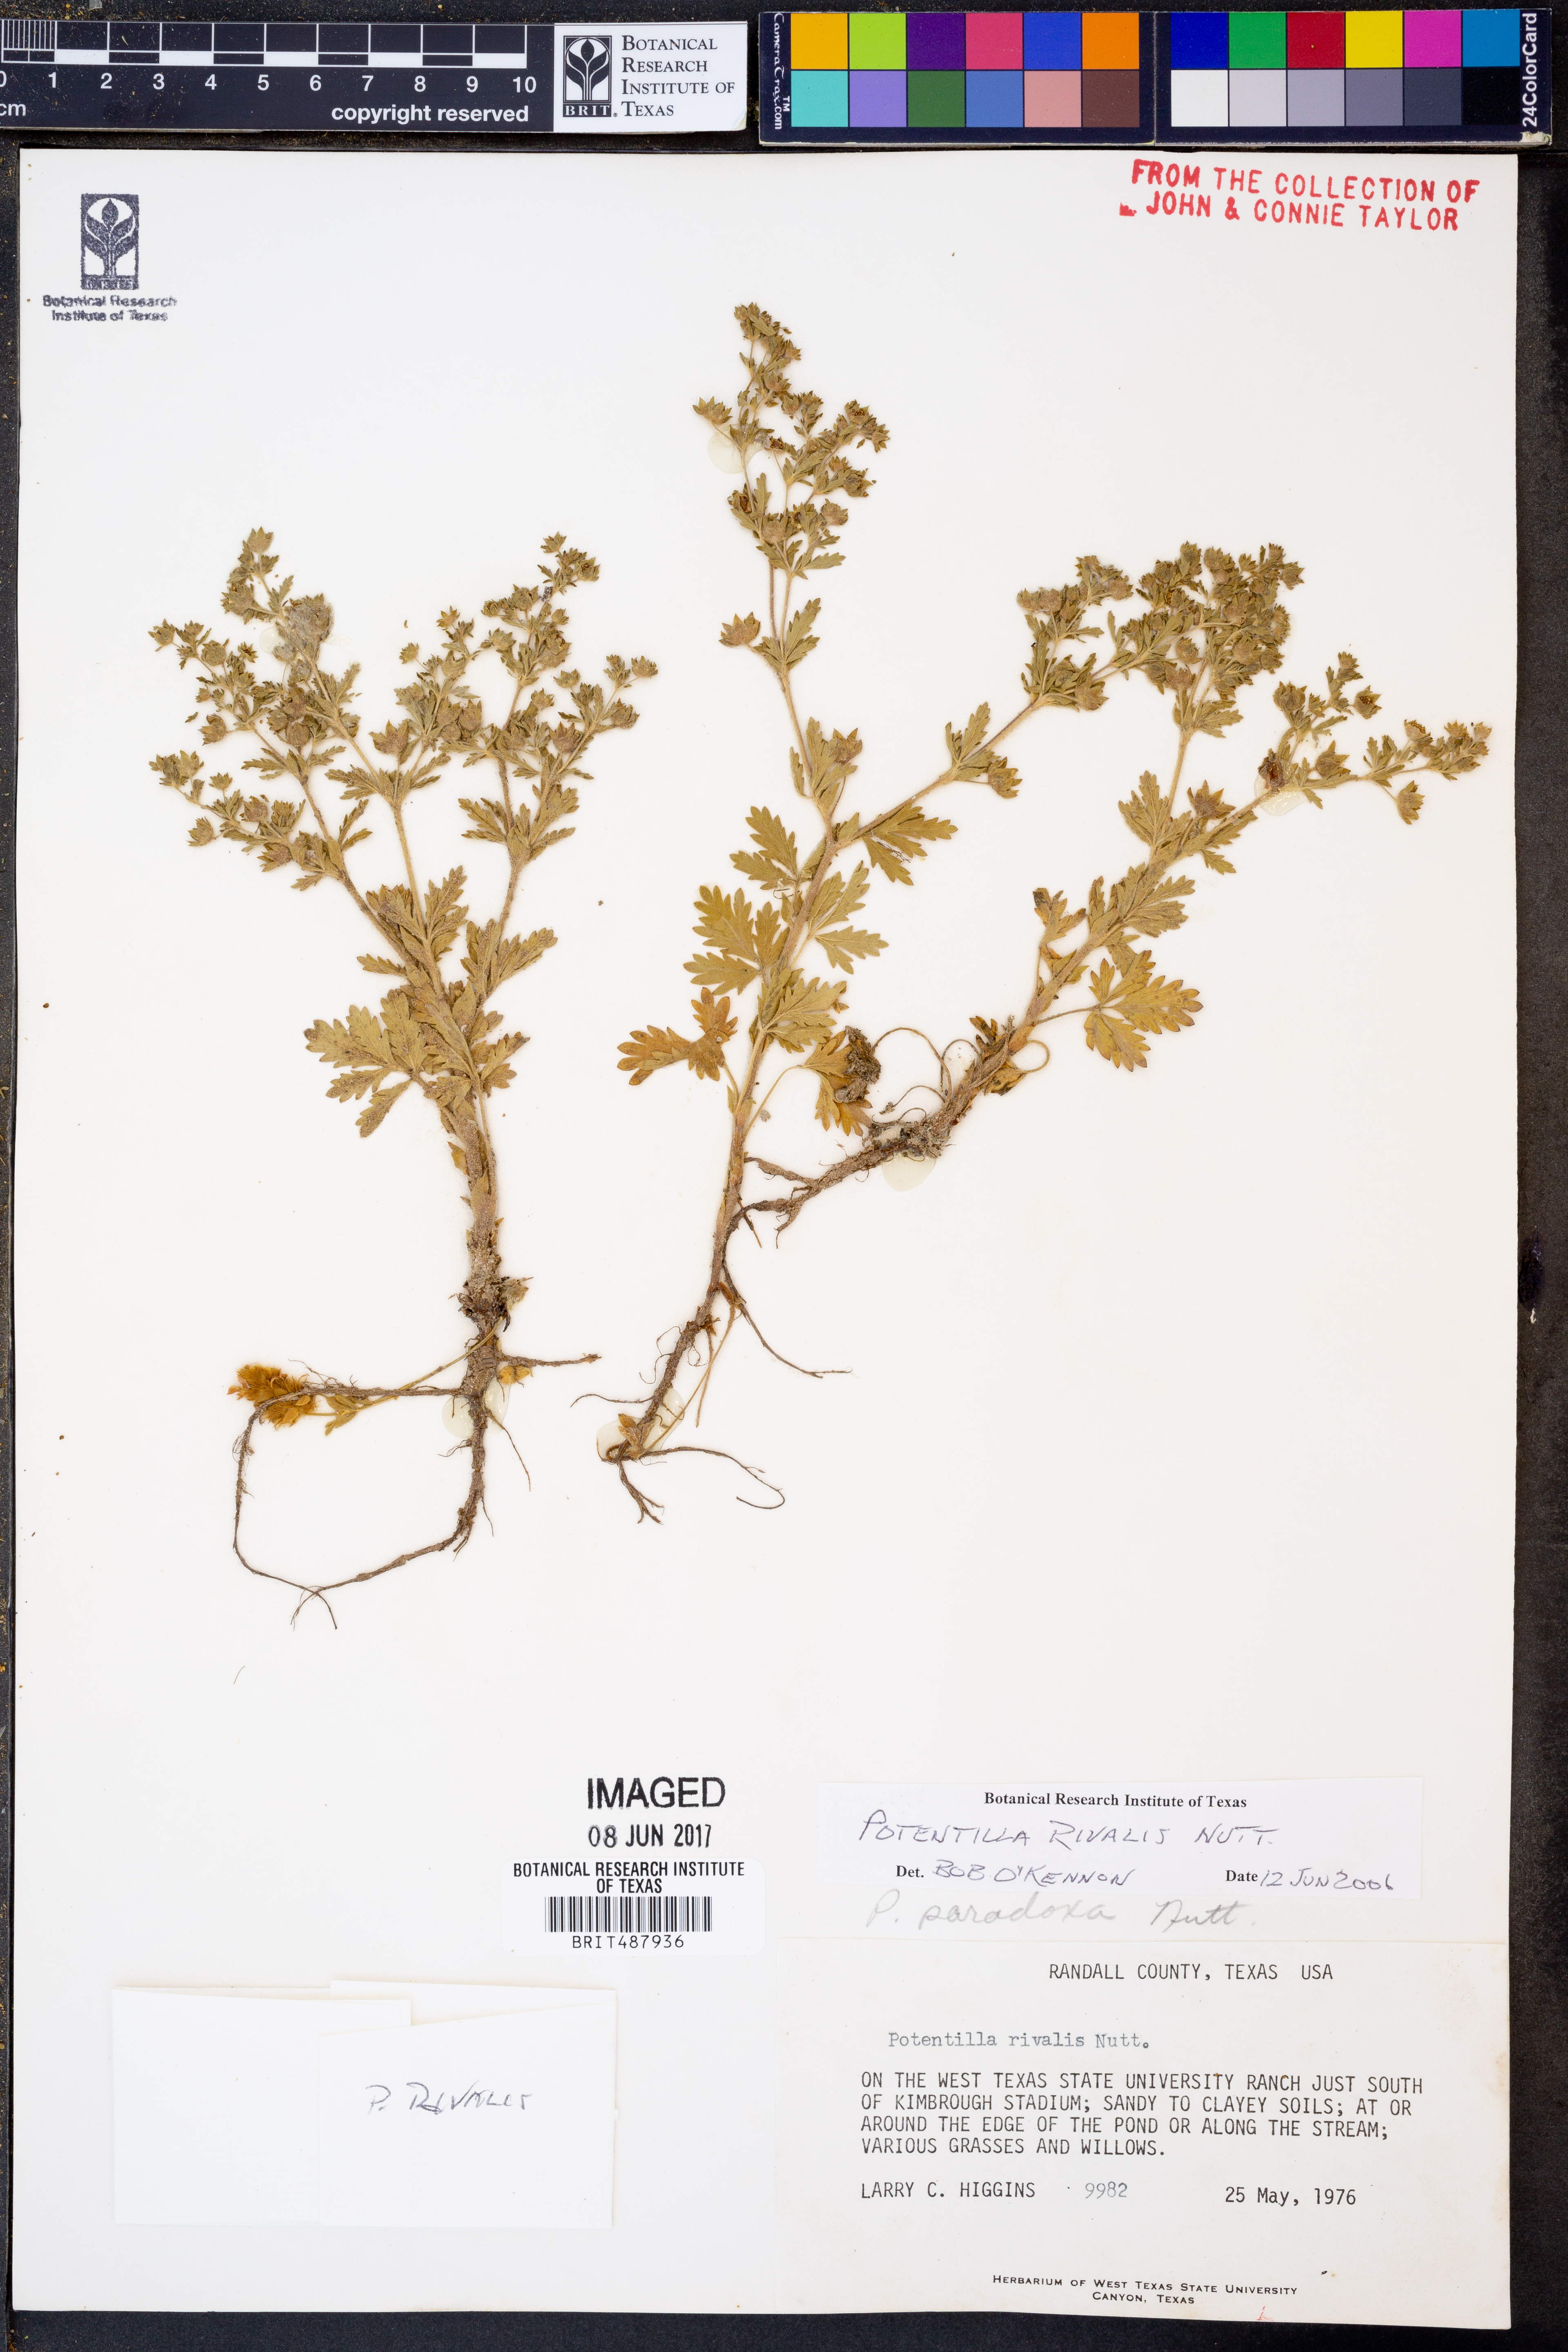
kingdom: Plantae
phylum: Tracheophyta
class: Magnoliopsida
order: Rosales
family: Rosaceae
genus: Potentilla
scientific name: Potentilla rivalis
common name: Brook cinquefoil
